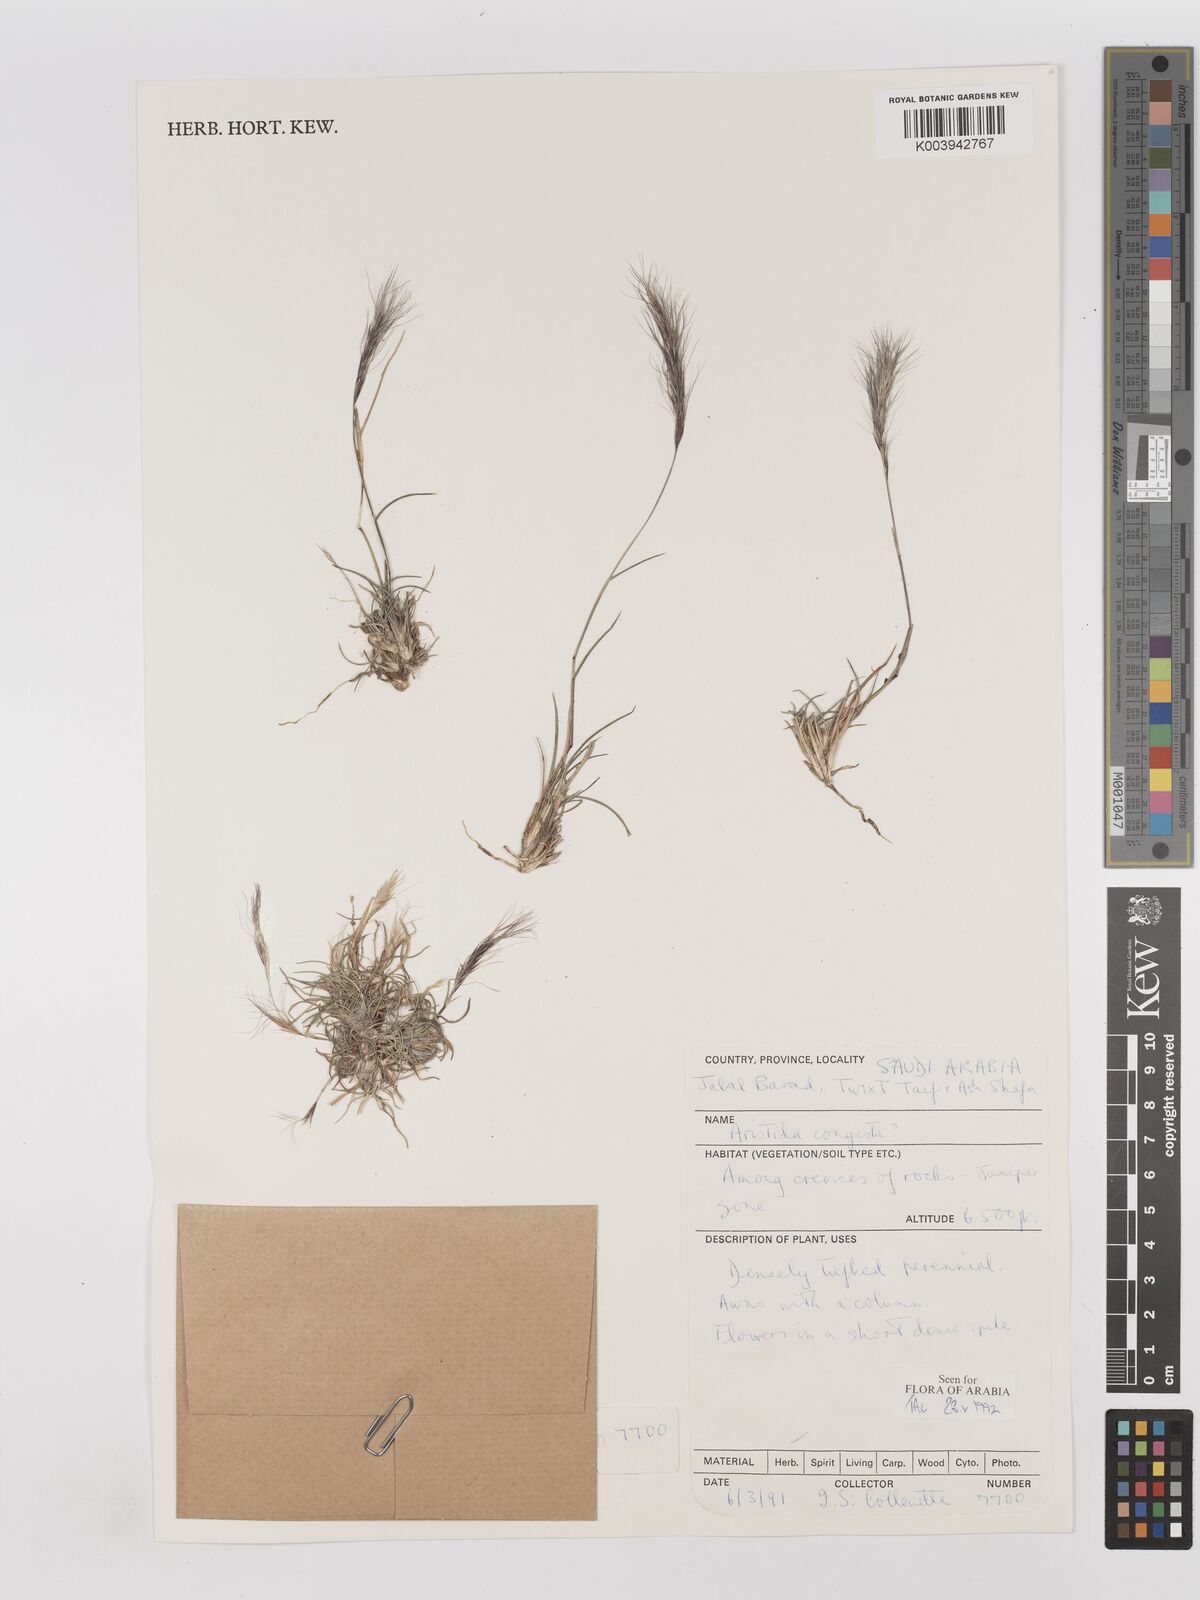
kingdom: Plantae
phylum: Tracheophyta
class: Liliopsida
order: Poales
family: Poaceae
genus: Aristida
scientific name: Aristida congesta
